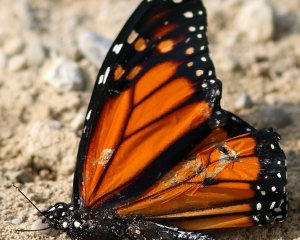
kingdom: Animalia
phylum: Arthropoda
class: Insecta
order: Lepidoptera
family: Nymphalidae
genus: Danaus
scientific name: Danaus plexippus
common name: Monarch
